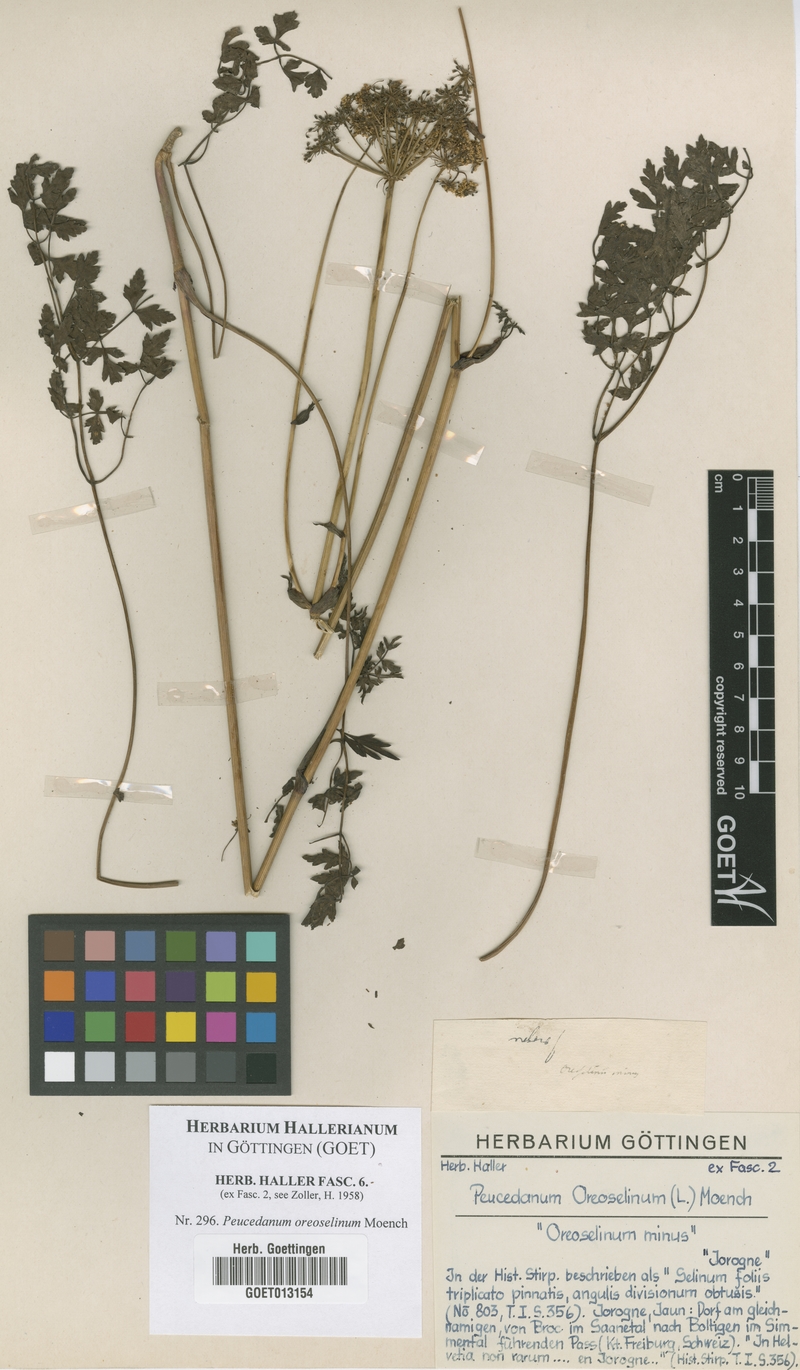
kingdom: Plantae
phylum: Tracheophyta
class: Magnoliopsida
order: Apiales
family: Apiaceae
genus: Oreoselinum
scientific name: Oreoselinum nigrum
